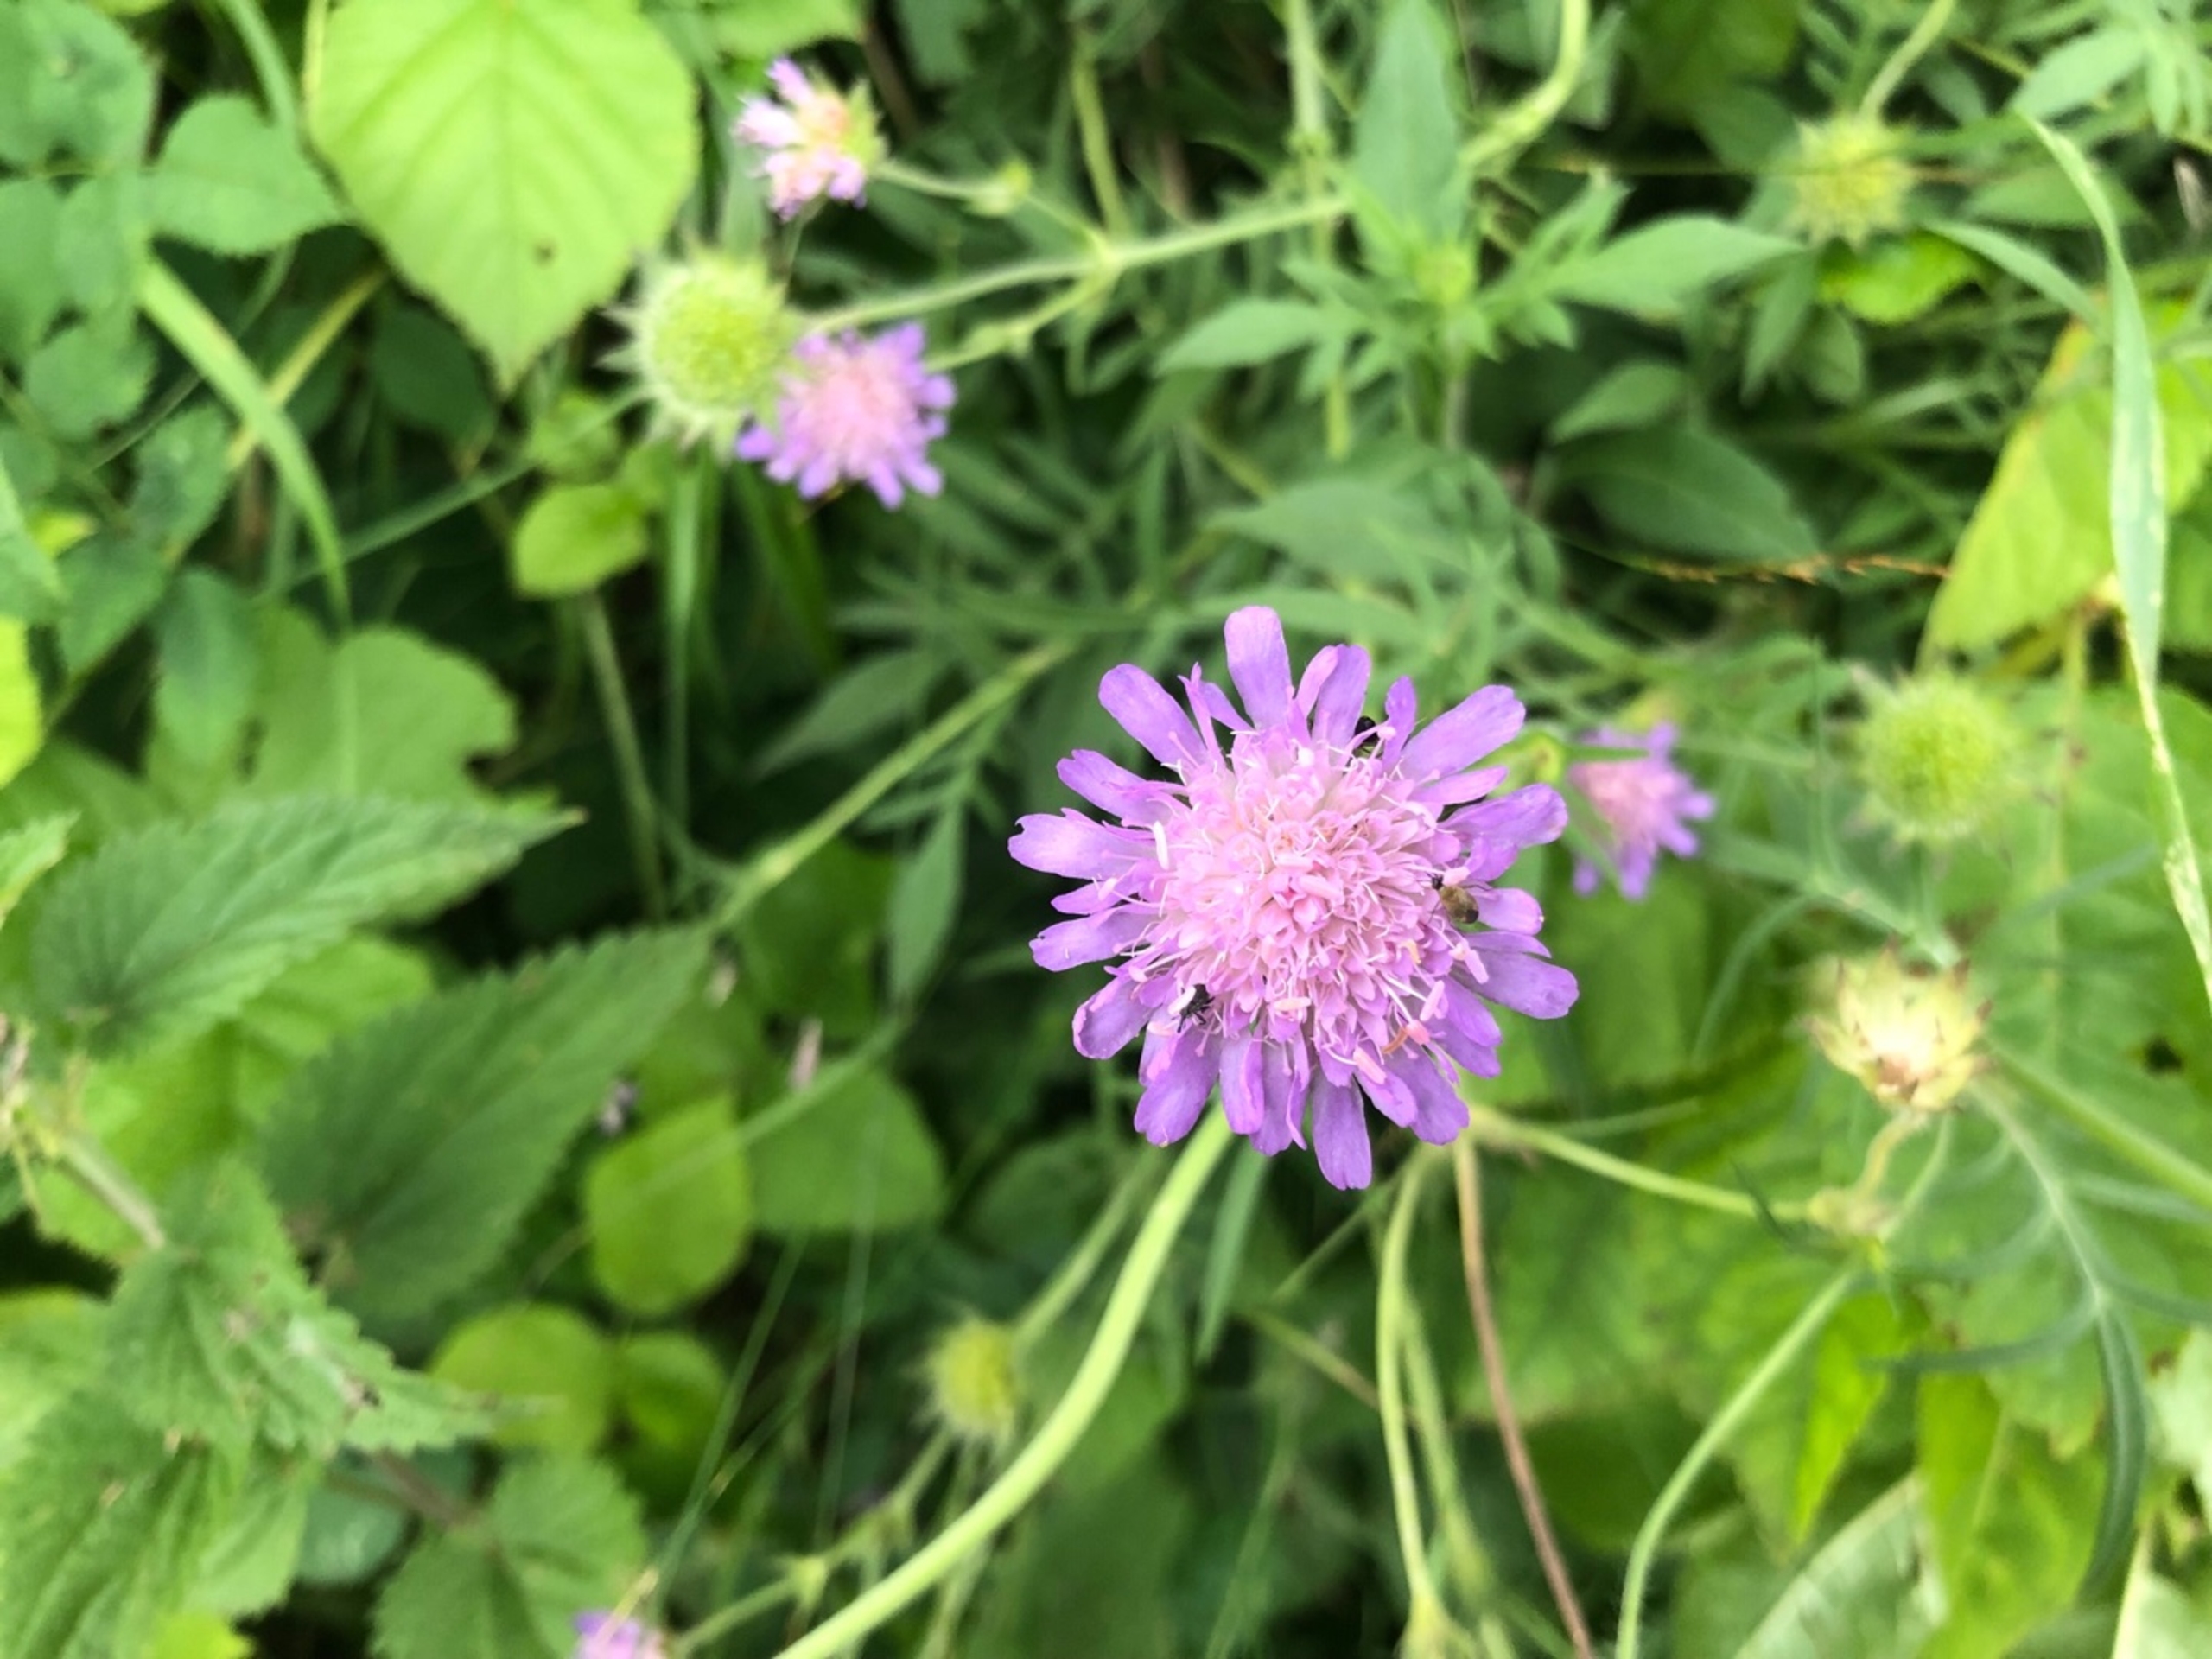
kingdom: Plantae
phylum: Tracheophyta
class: Magnoliopsida
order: Dipsacales
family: Caprifoliaceae
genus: Knautia
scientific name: Knautia arvensis
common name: Blåhat
